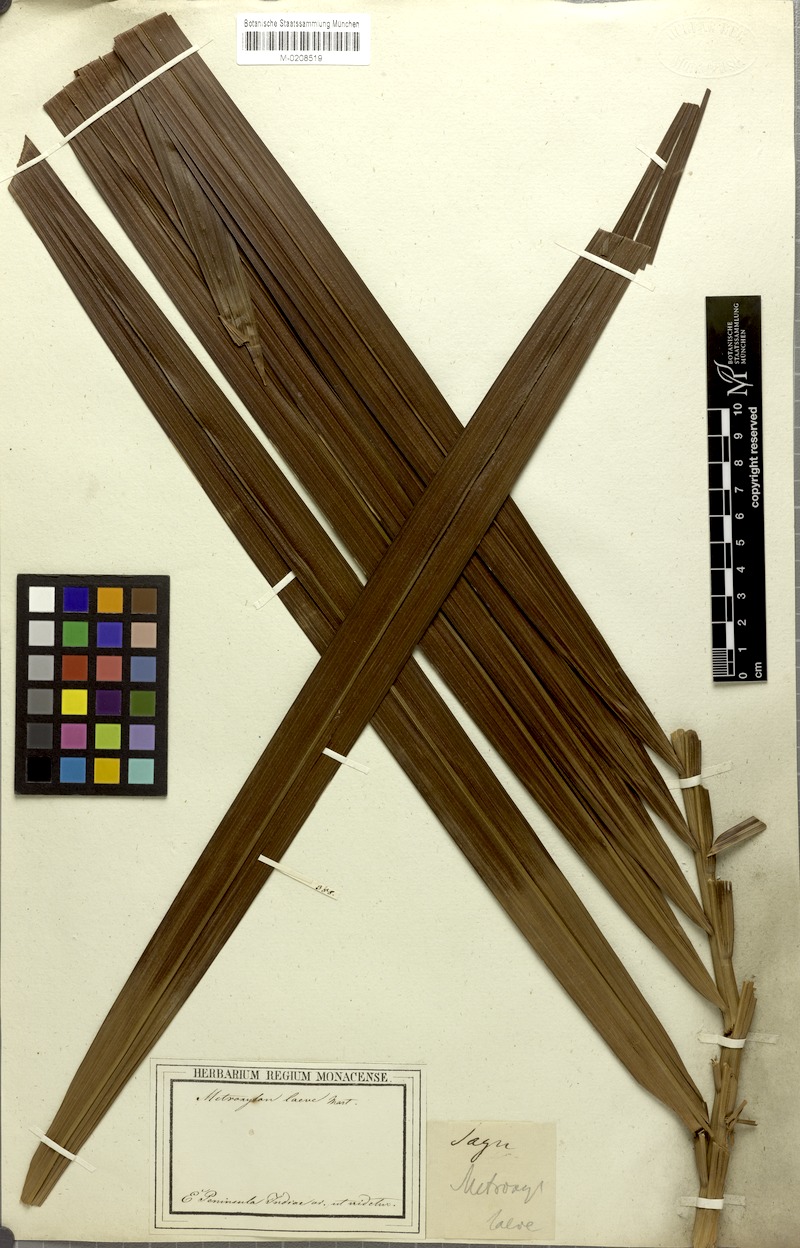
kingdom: Plantae
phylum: Tracheophyta
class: Liliopsida
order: Arecales
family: Arecaceae
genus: Metroxylon
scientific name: Metroxylon sagu
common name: Sago palm
